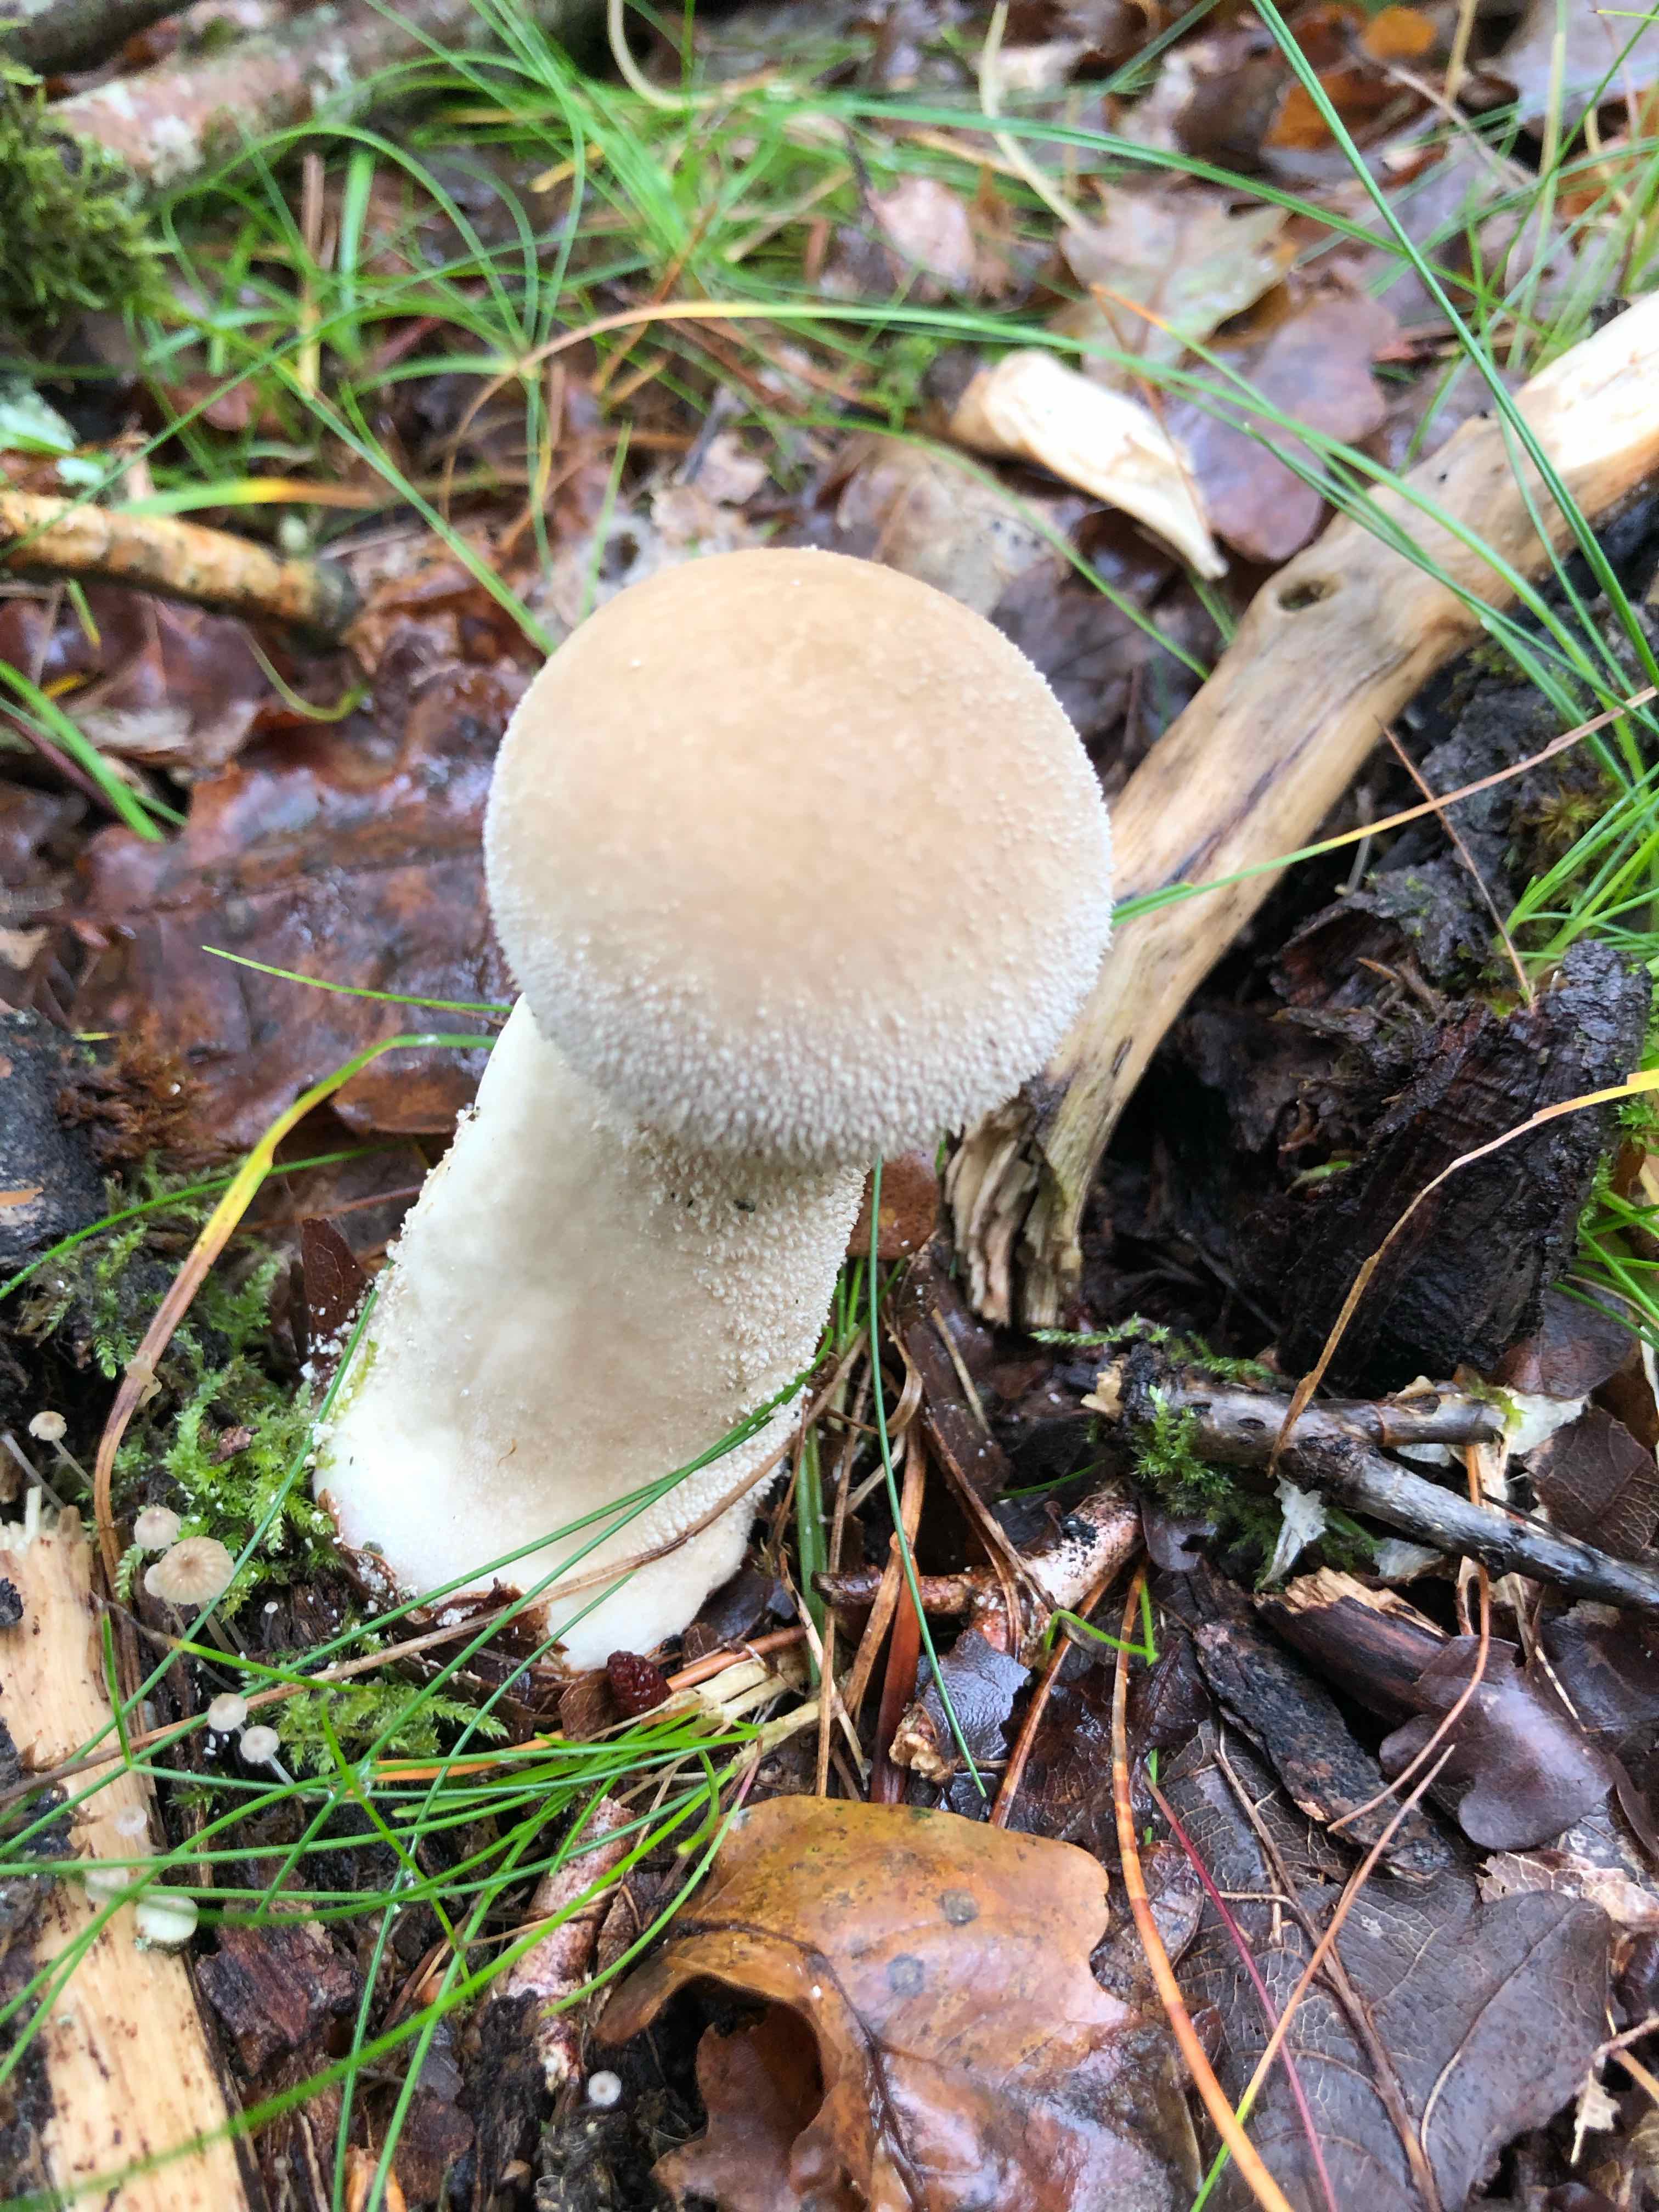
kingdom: Fungi
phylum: Basidiomycota
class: Agaricomycetes
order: Agaricales
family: Lycoperdaceae
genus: Lycoperdon
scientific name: Lycoperdon excipuliforme
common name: højstokket støvbold
